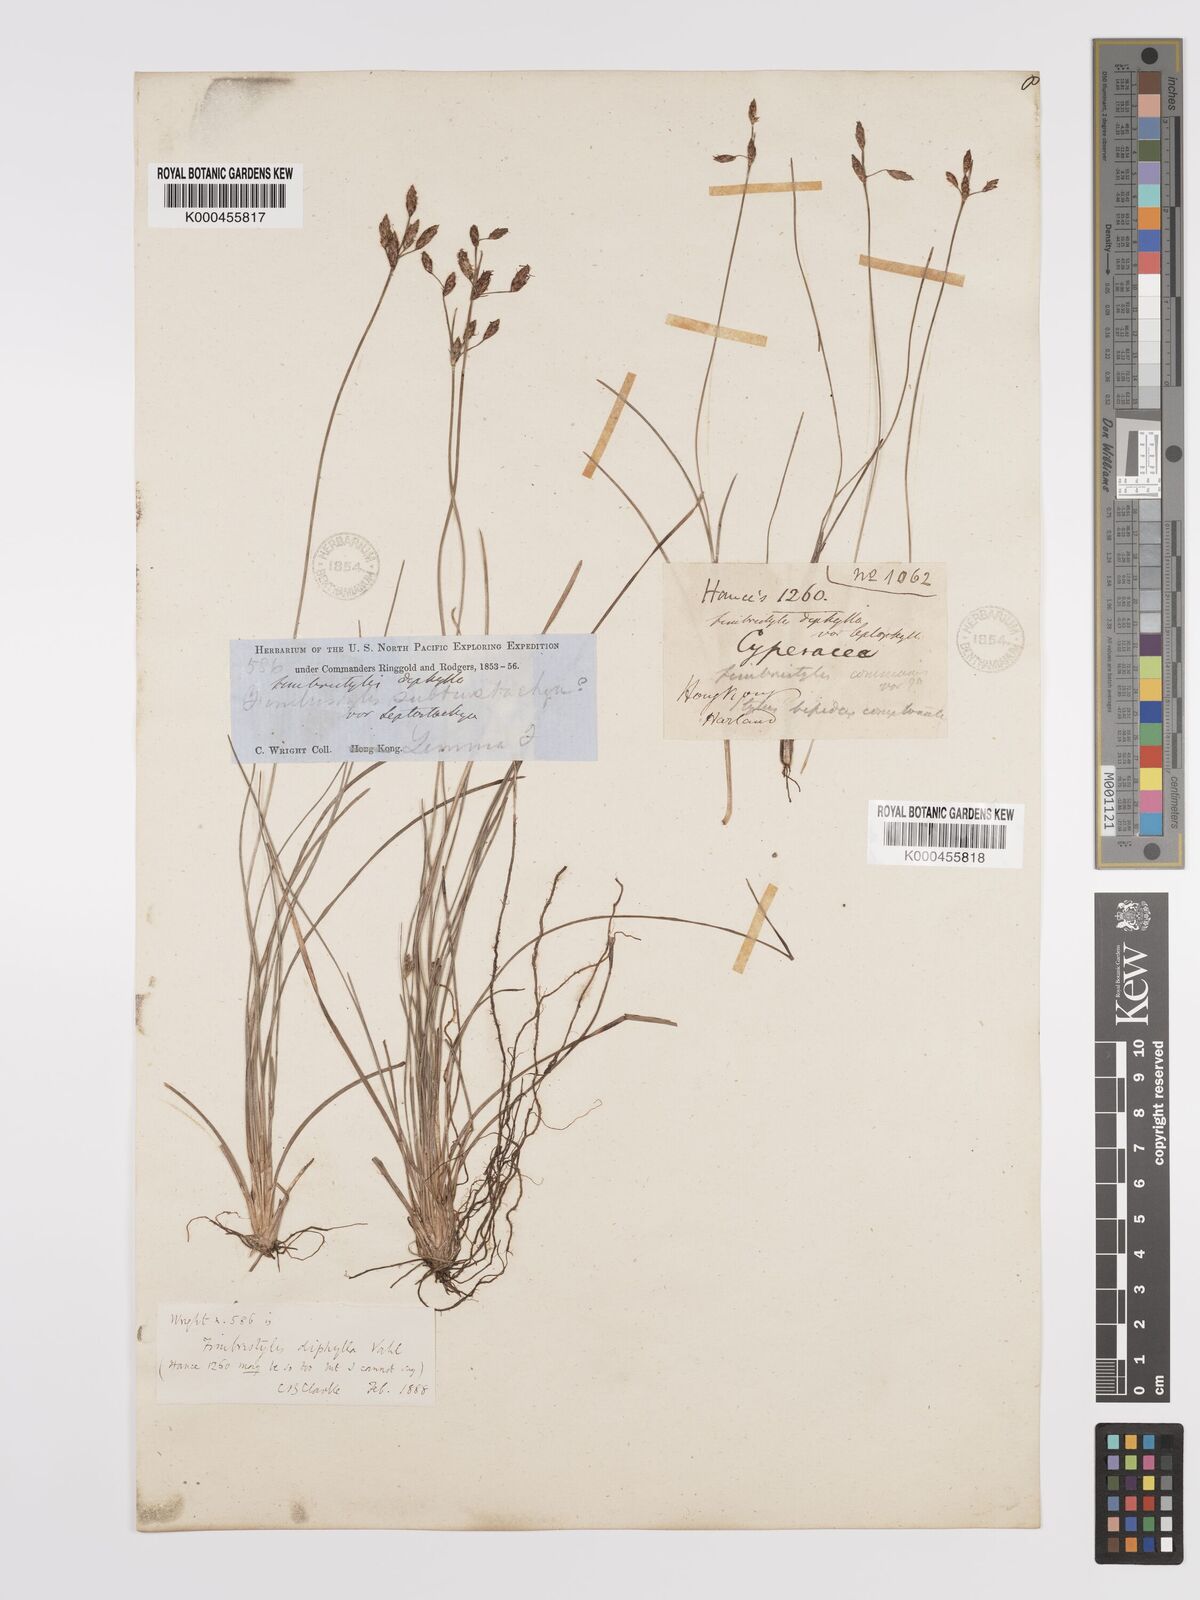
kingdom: Plantae
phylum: Tracheophyta
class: Liliopsida
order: Poales
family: Cyperaceae
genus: Fimbristylis
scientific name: Fimbristylis dichotoma
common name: Forked fimbry
